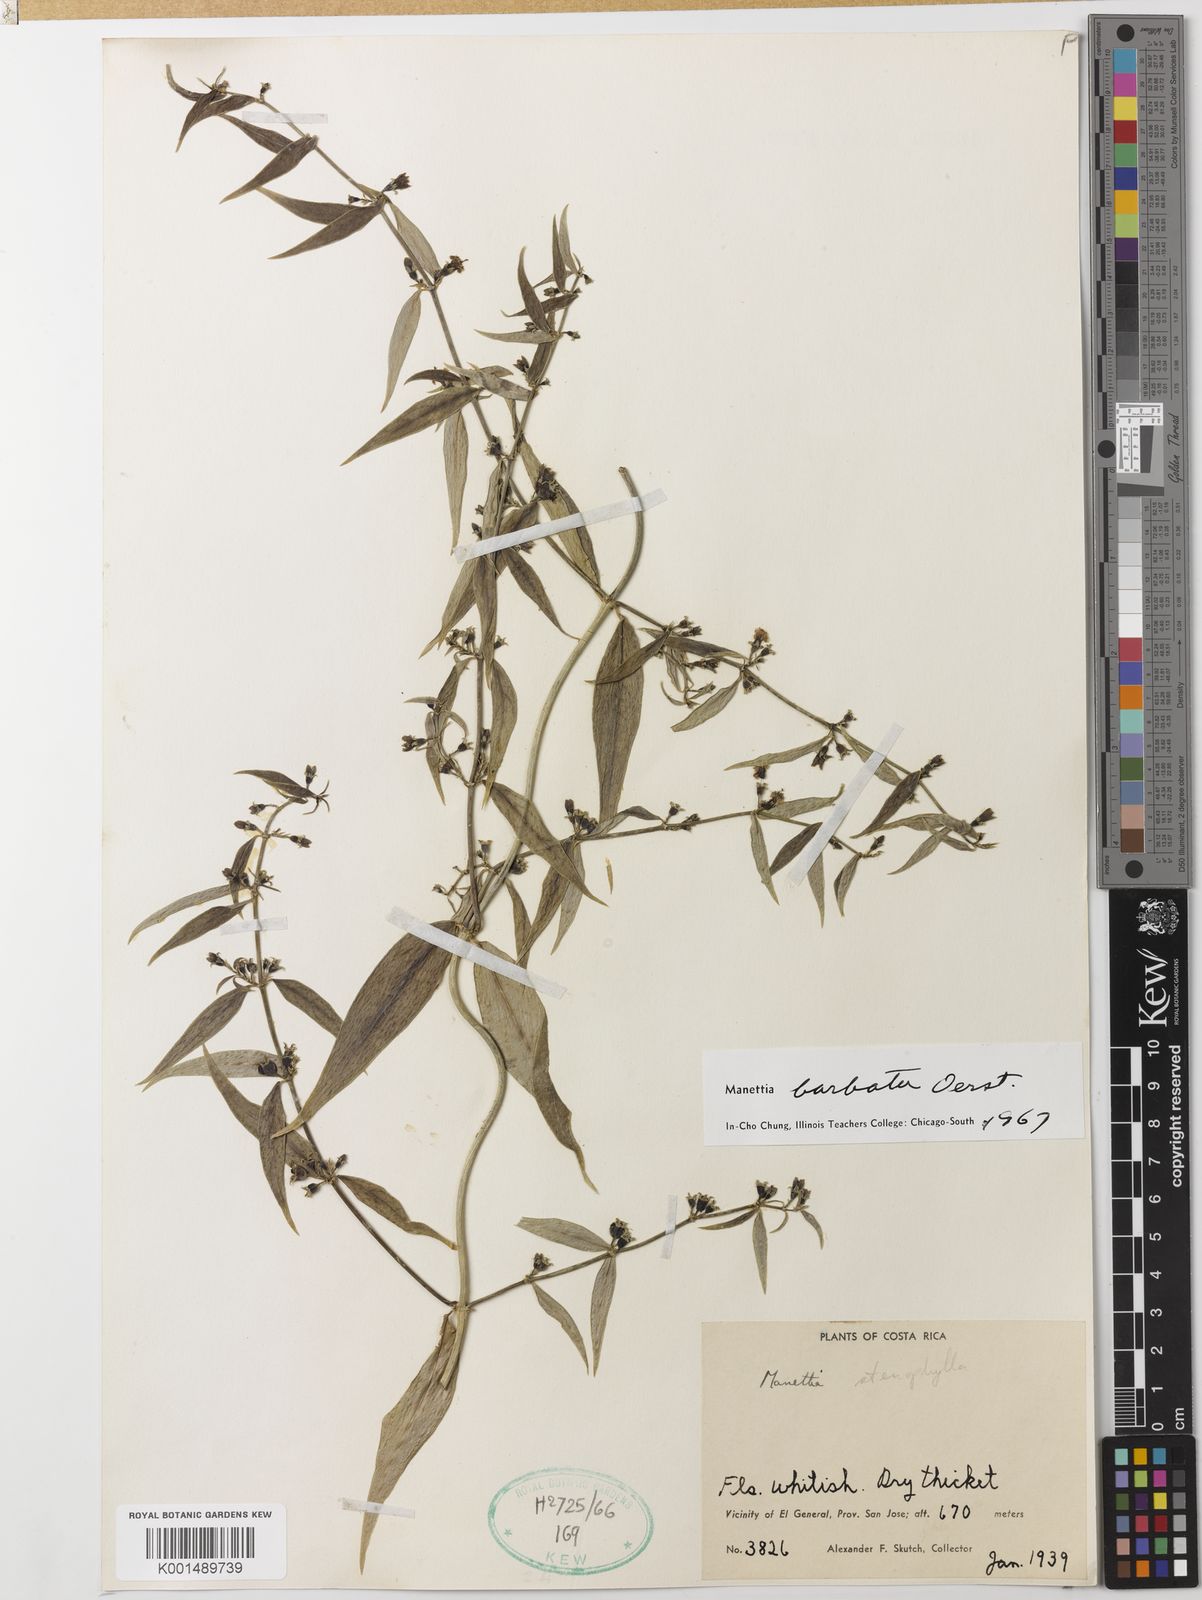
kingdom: Plantae
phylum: Tracheophyta
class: Magnoliopsida
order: Gentianales
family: Rubiaceae
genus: Manettia
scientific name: Manettia barbata
